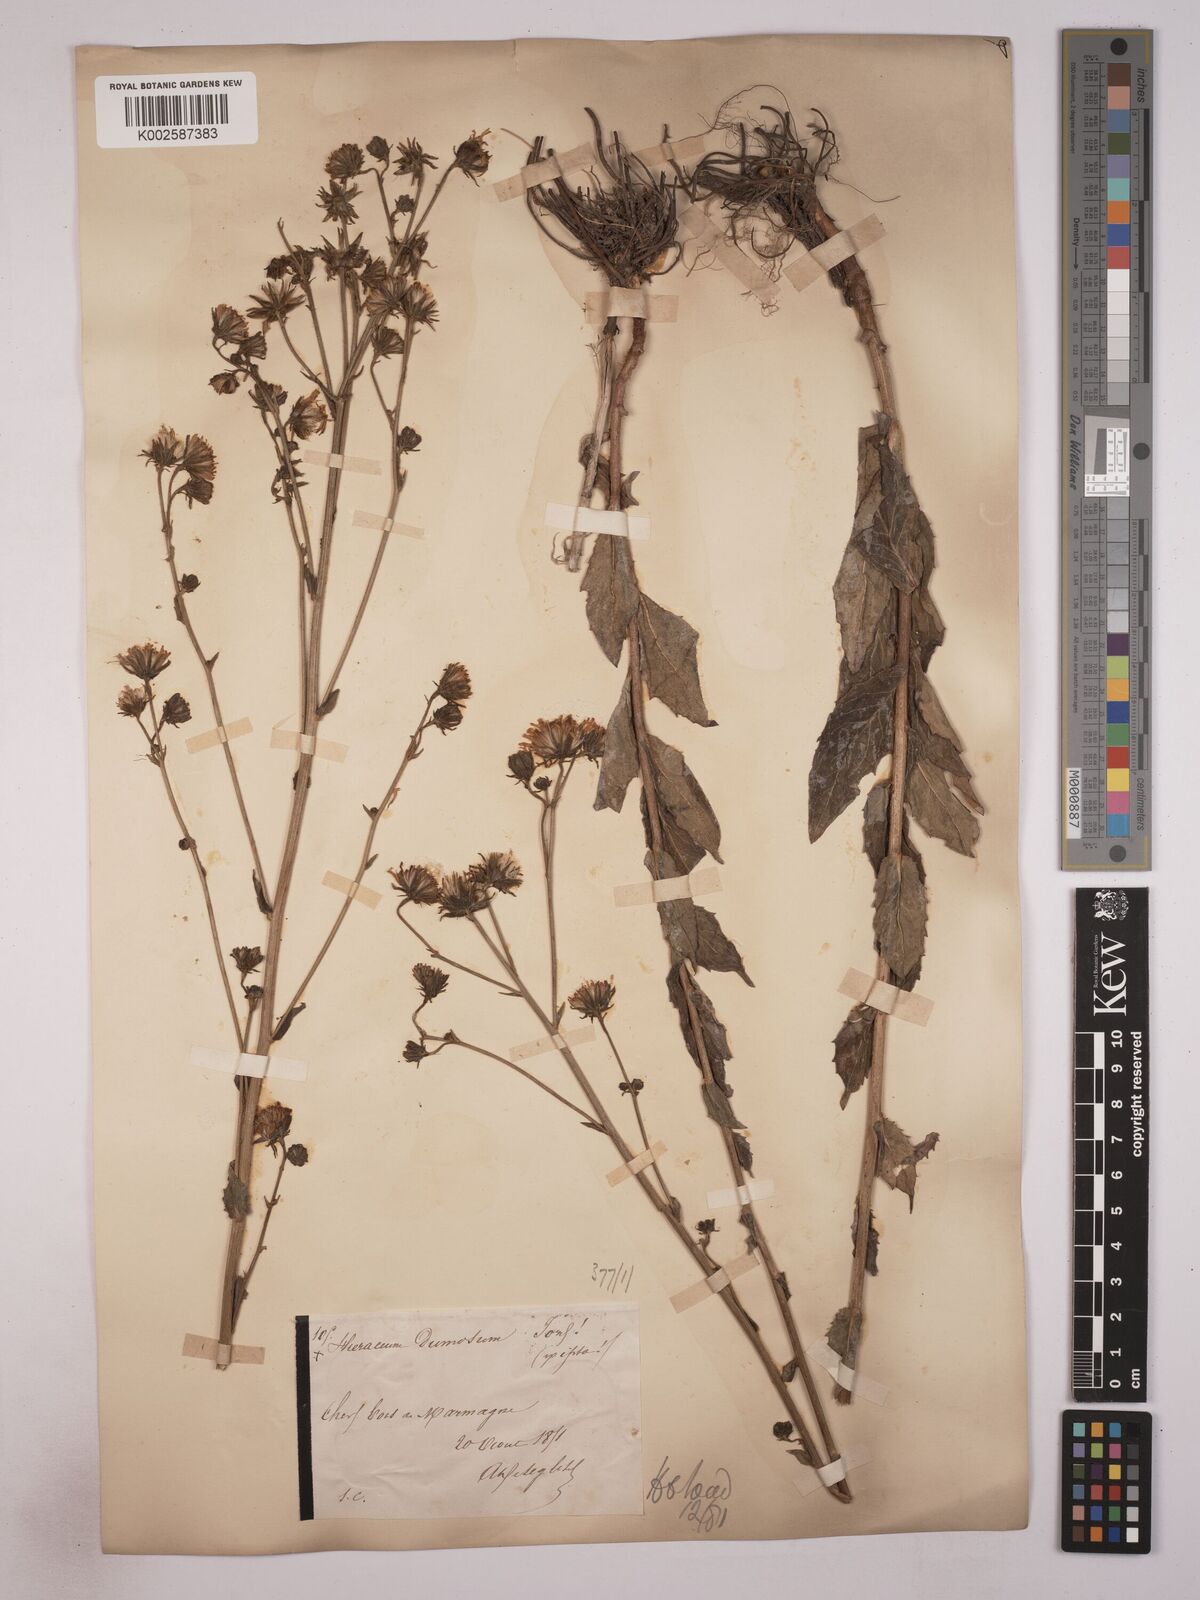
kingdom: Plantae
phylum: Tracheophyta
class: Magnoliopsida
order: Asterales
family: Asteraceae
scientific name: Asteraceae
